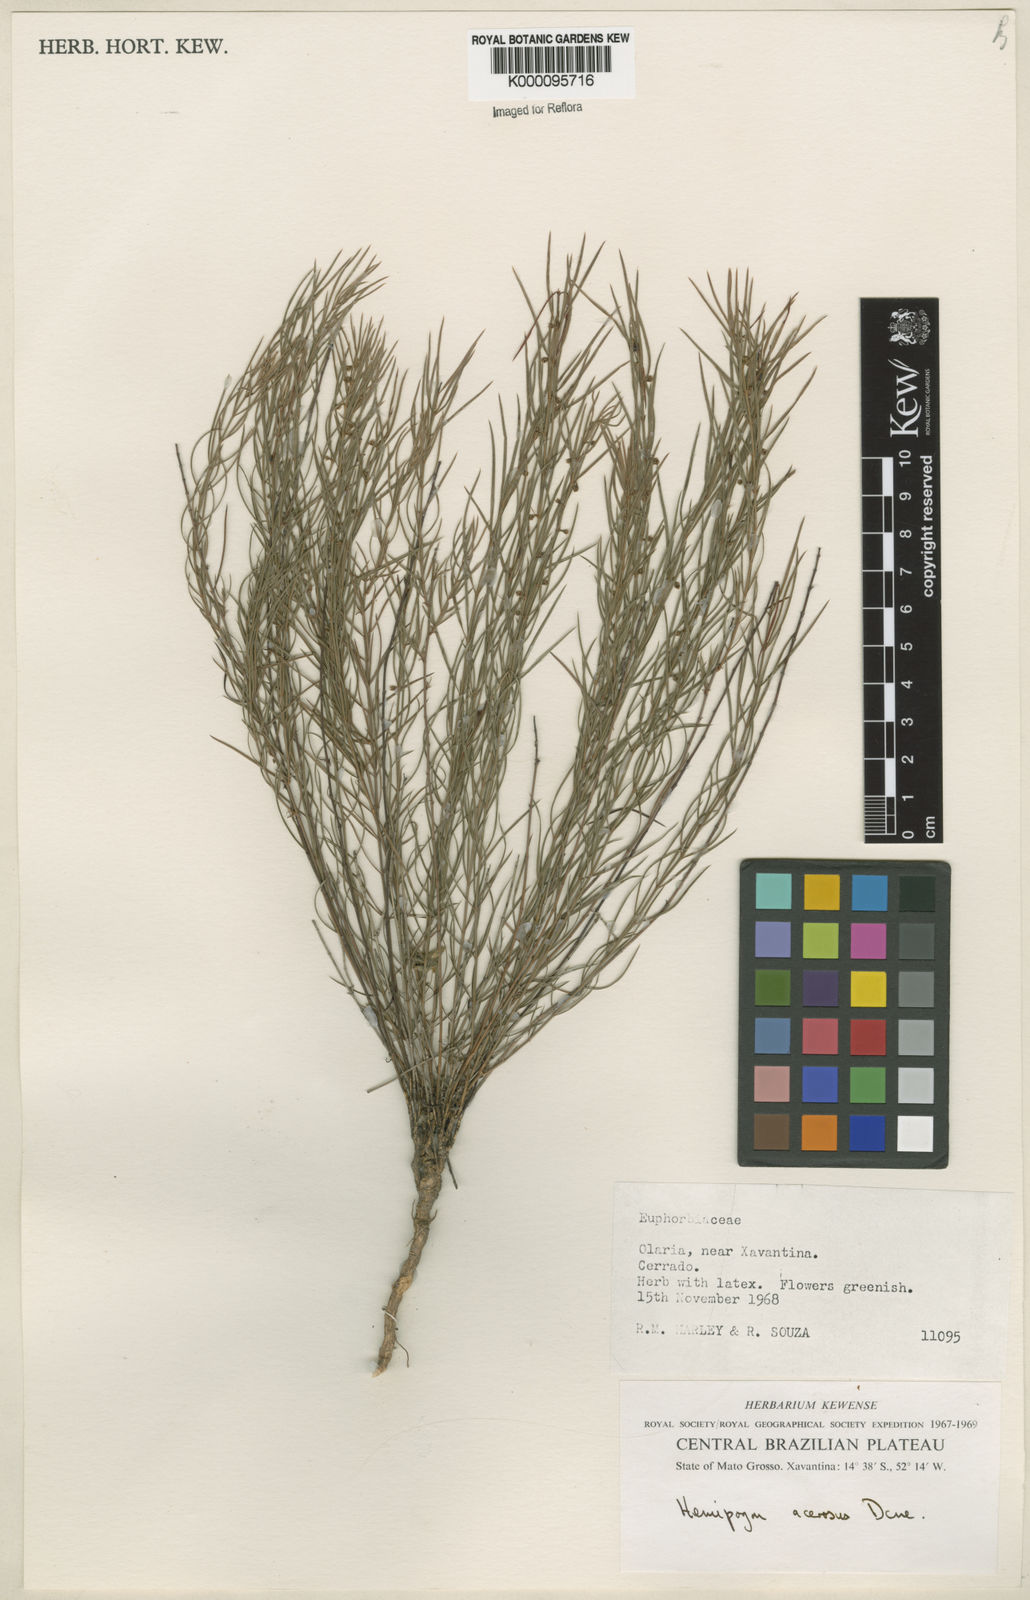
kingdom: Plantae
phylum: Tracheophyta
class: Magnoliopsida
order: Gentianales
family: Apocynaceae
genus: Hemipogon
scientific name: Hemipogon acerosus
